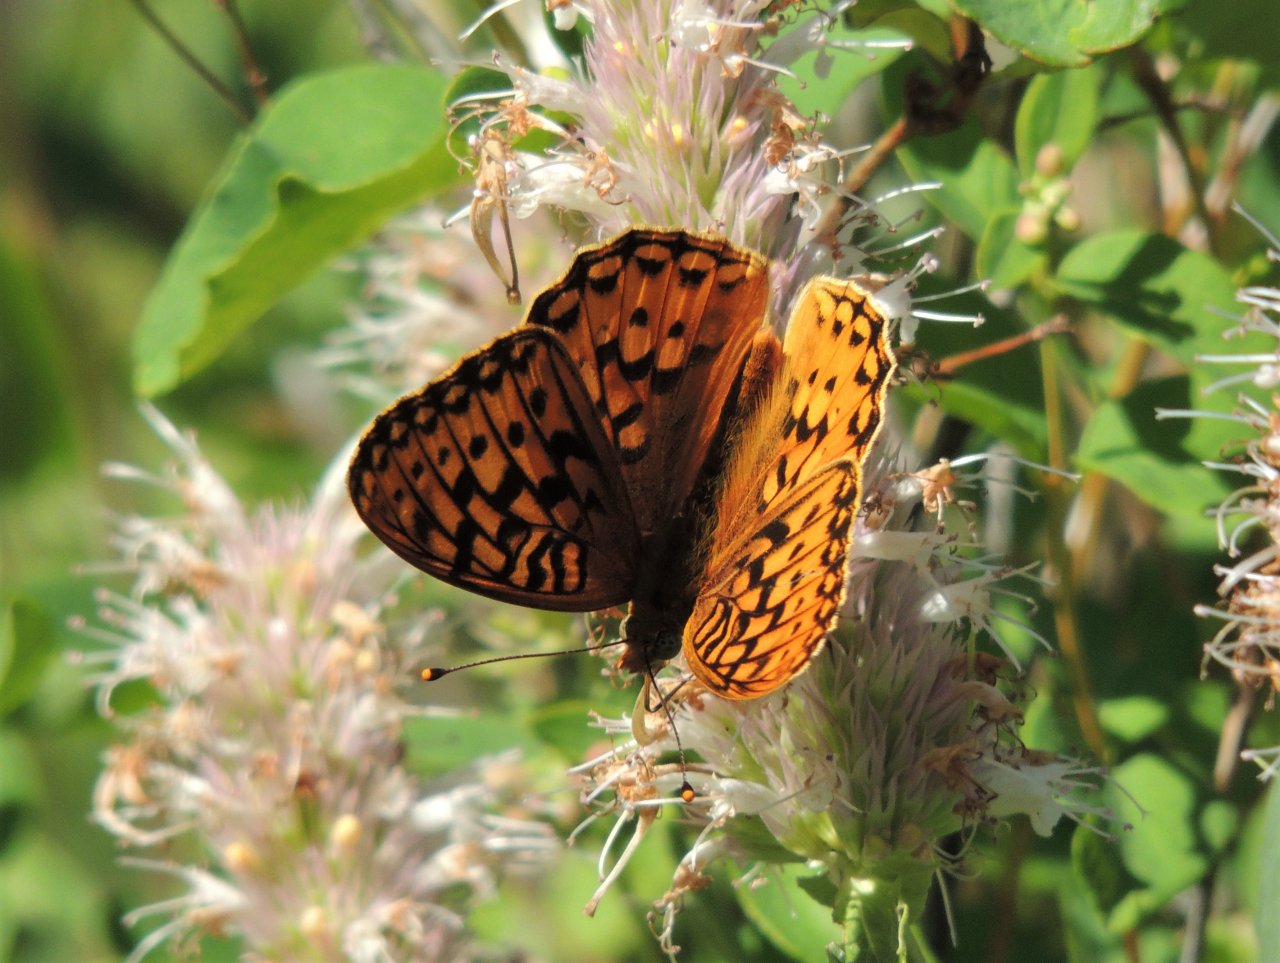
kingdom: Animalia
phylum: Arthropoda
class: Insecta
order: Lepidoptera
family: Nymphalidae
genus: Speyeria
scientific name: Speyeria coronis
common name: Coronis Fritillary
